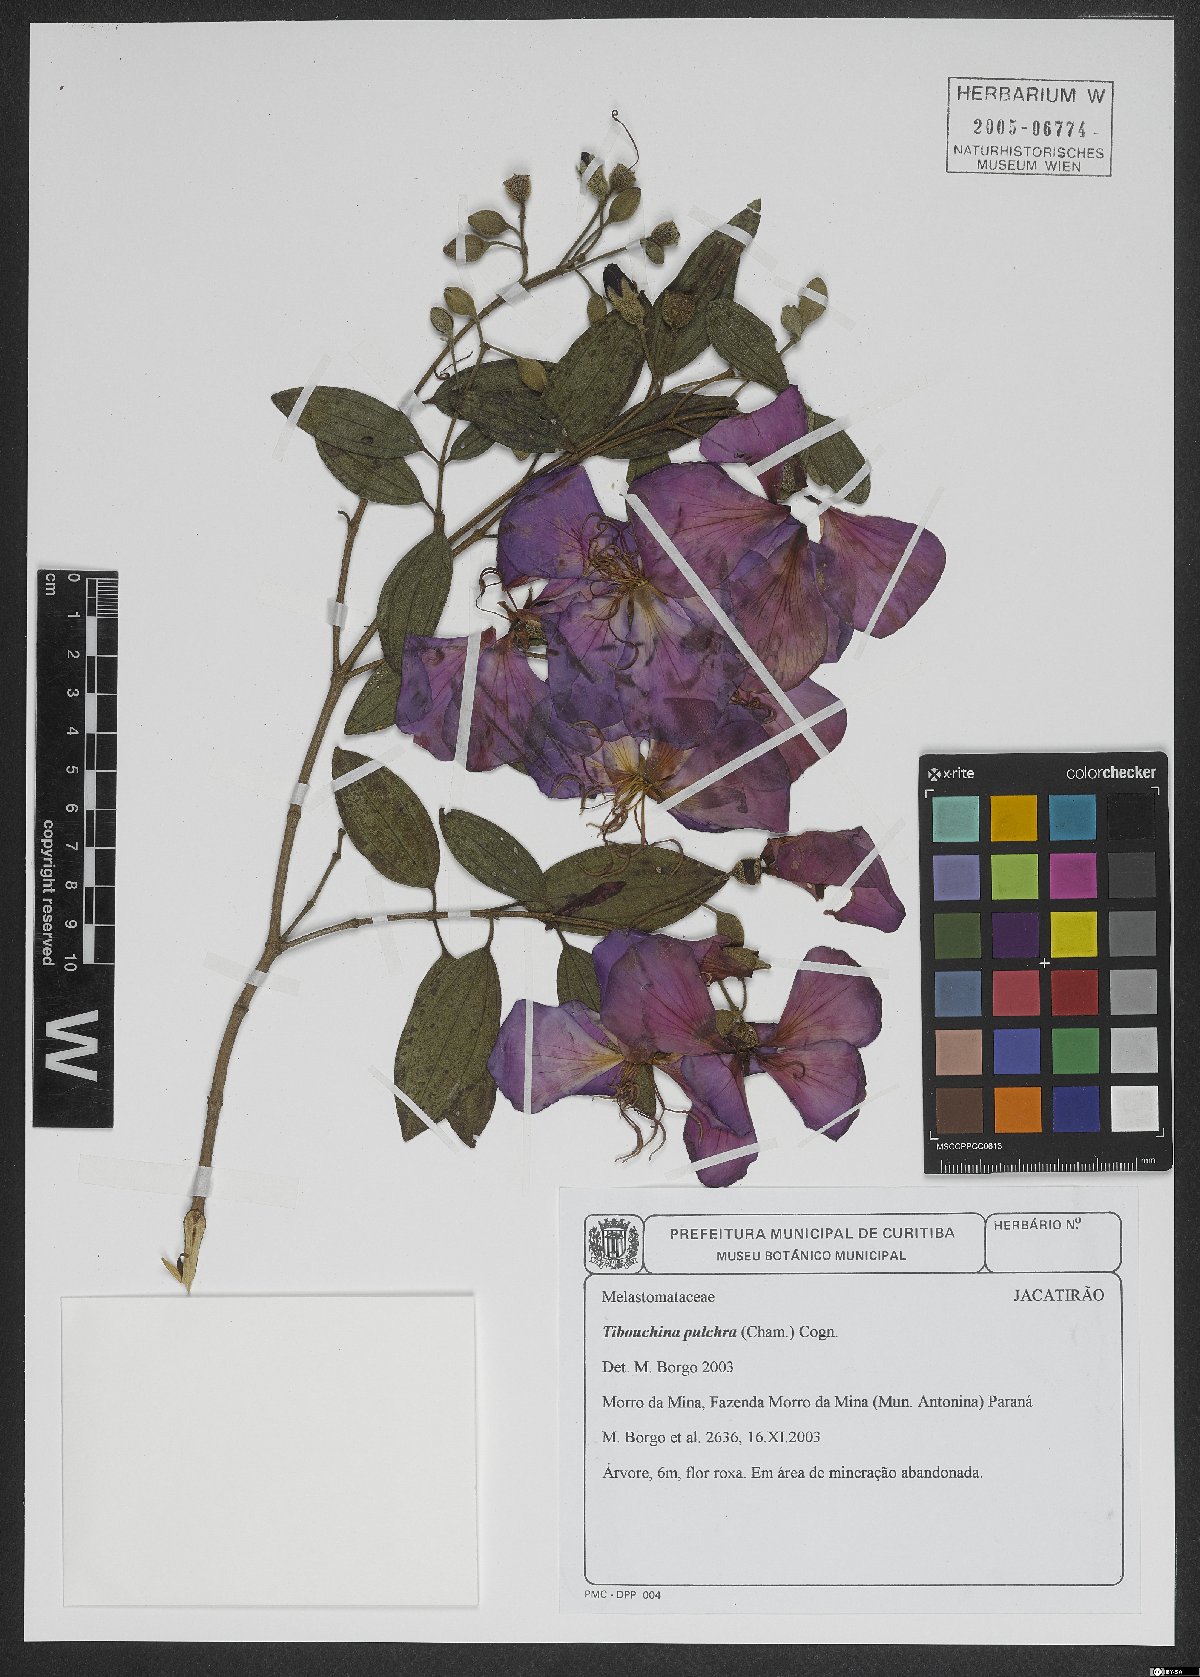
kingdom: Plantae
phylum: Tracheophyta
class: Magnoliopsida
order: Myrtales
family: Melastomataceae
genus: Pleroma
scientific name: Pleroma raddianum
